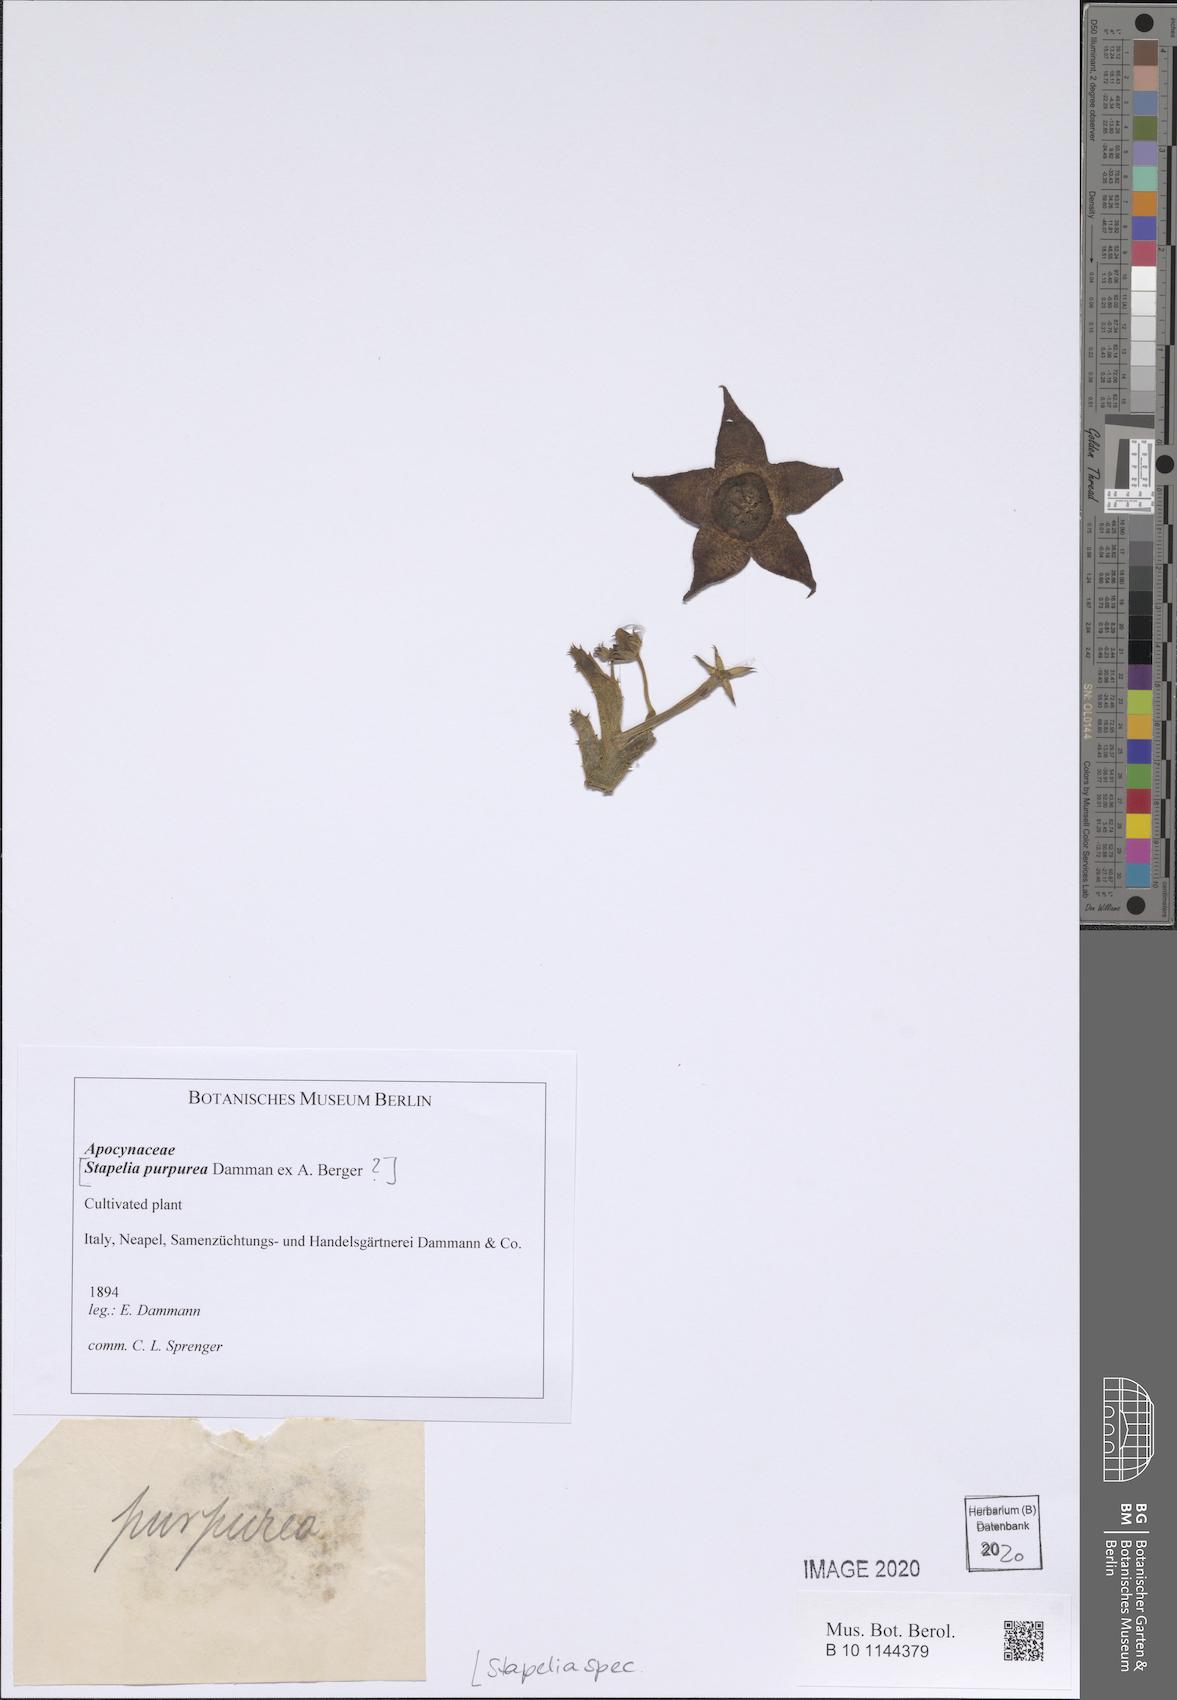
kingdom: Plantae
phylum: Tracheophyta
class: Magnoliopsida
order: Gentianales
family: Apocynaceae
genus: Stapelia
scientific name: Stapelia
